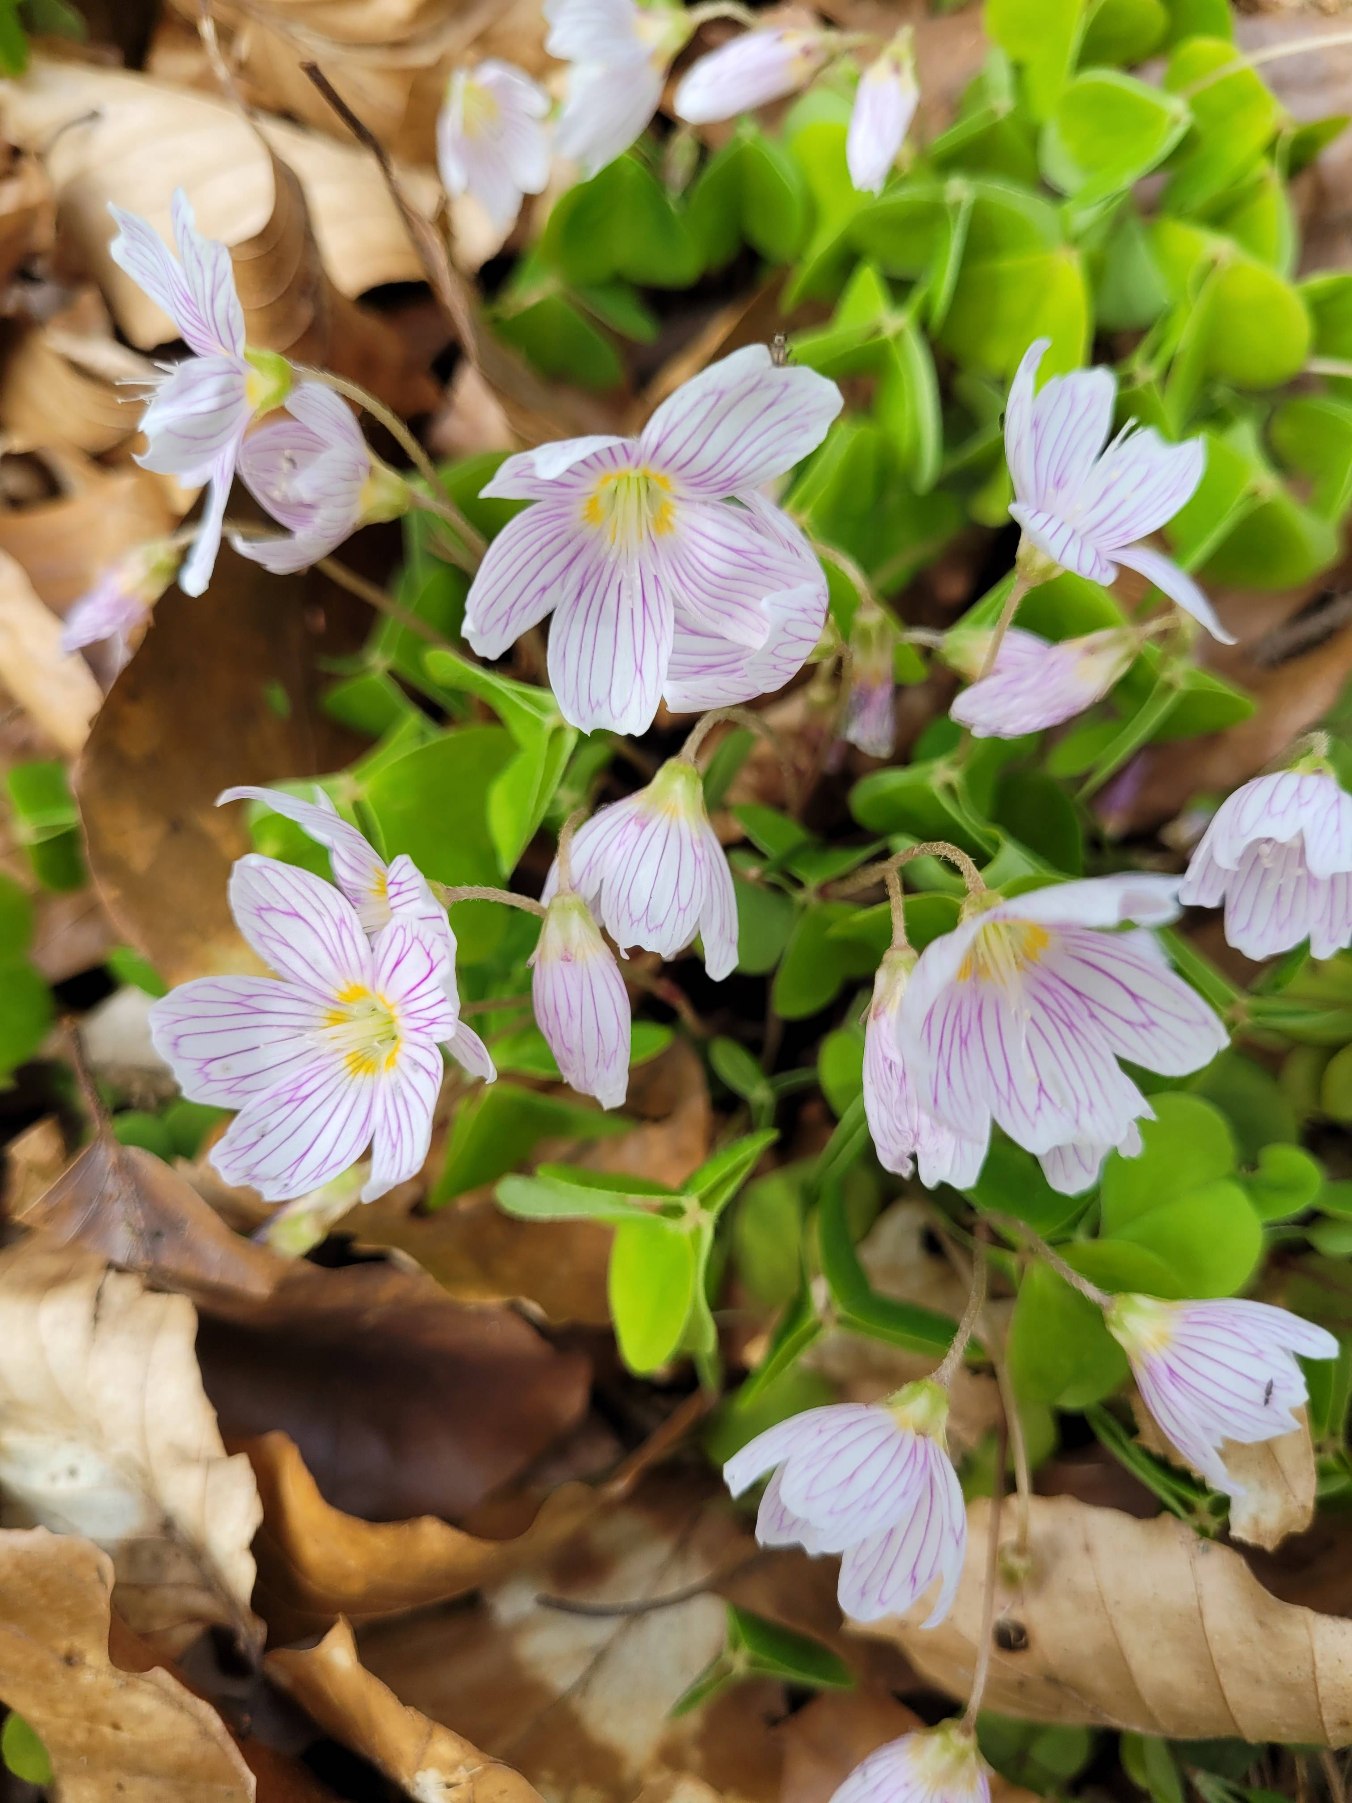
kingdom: Plantae
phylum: Tracheophyta
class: Magnoliopsida
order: Oxalidales
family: Oxalidaceae
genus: Oxalis
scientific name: Oxalis acetosella
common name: Skovsyre
